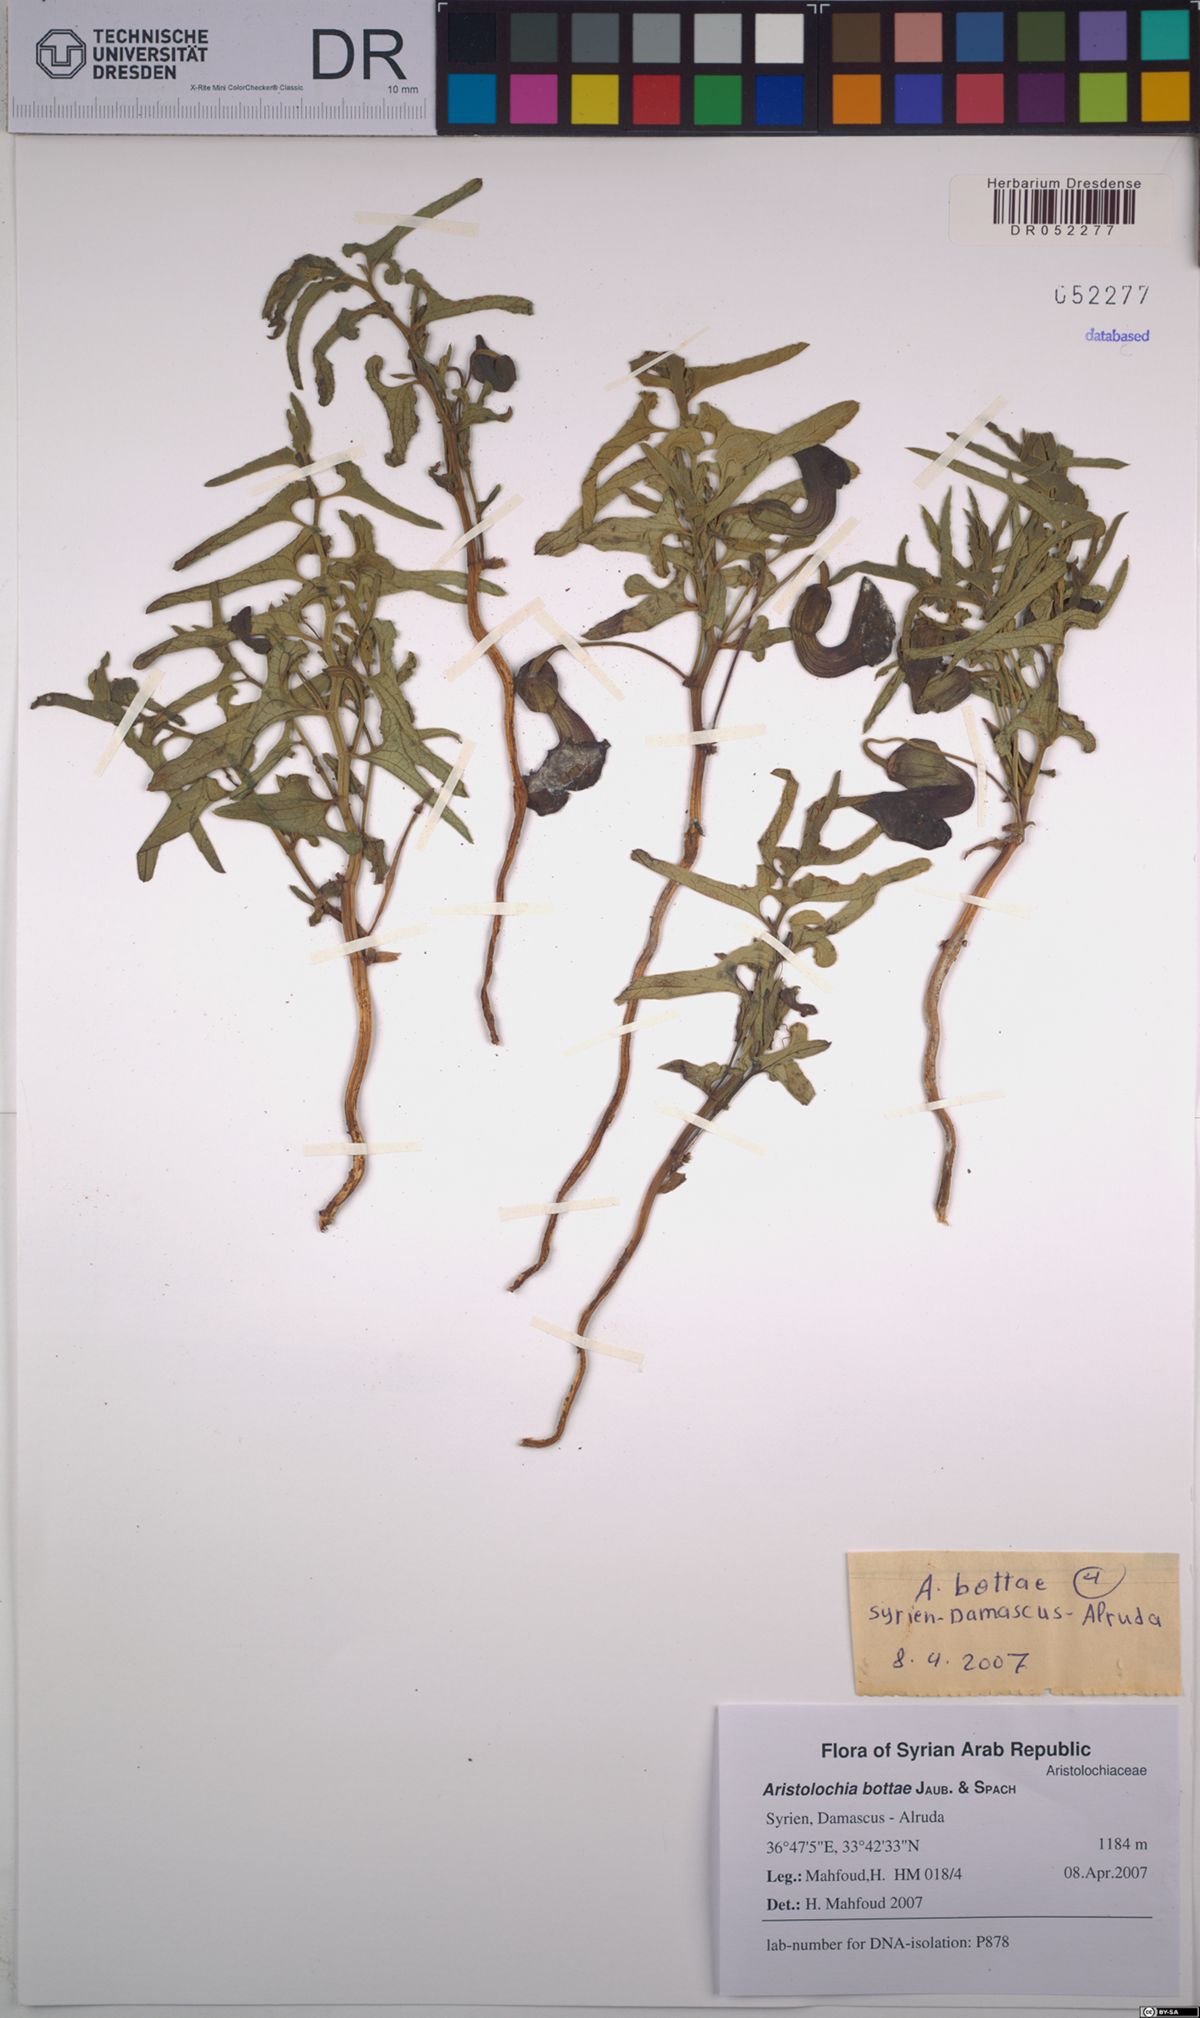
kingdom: Plantae
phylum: Tracheophyta
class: Magnoliopsida
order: Piperales
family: Aristolochiaceae
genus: Aristolochia
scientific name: Aristolochia bottae
